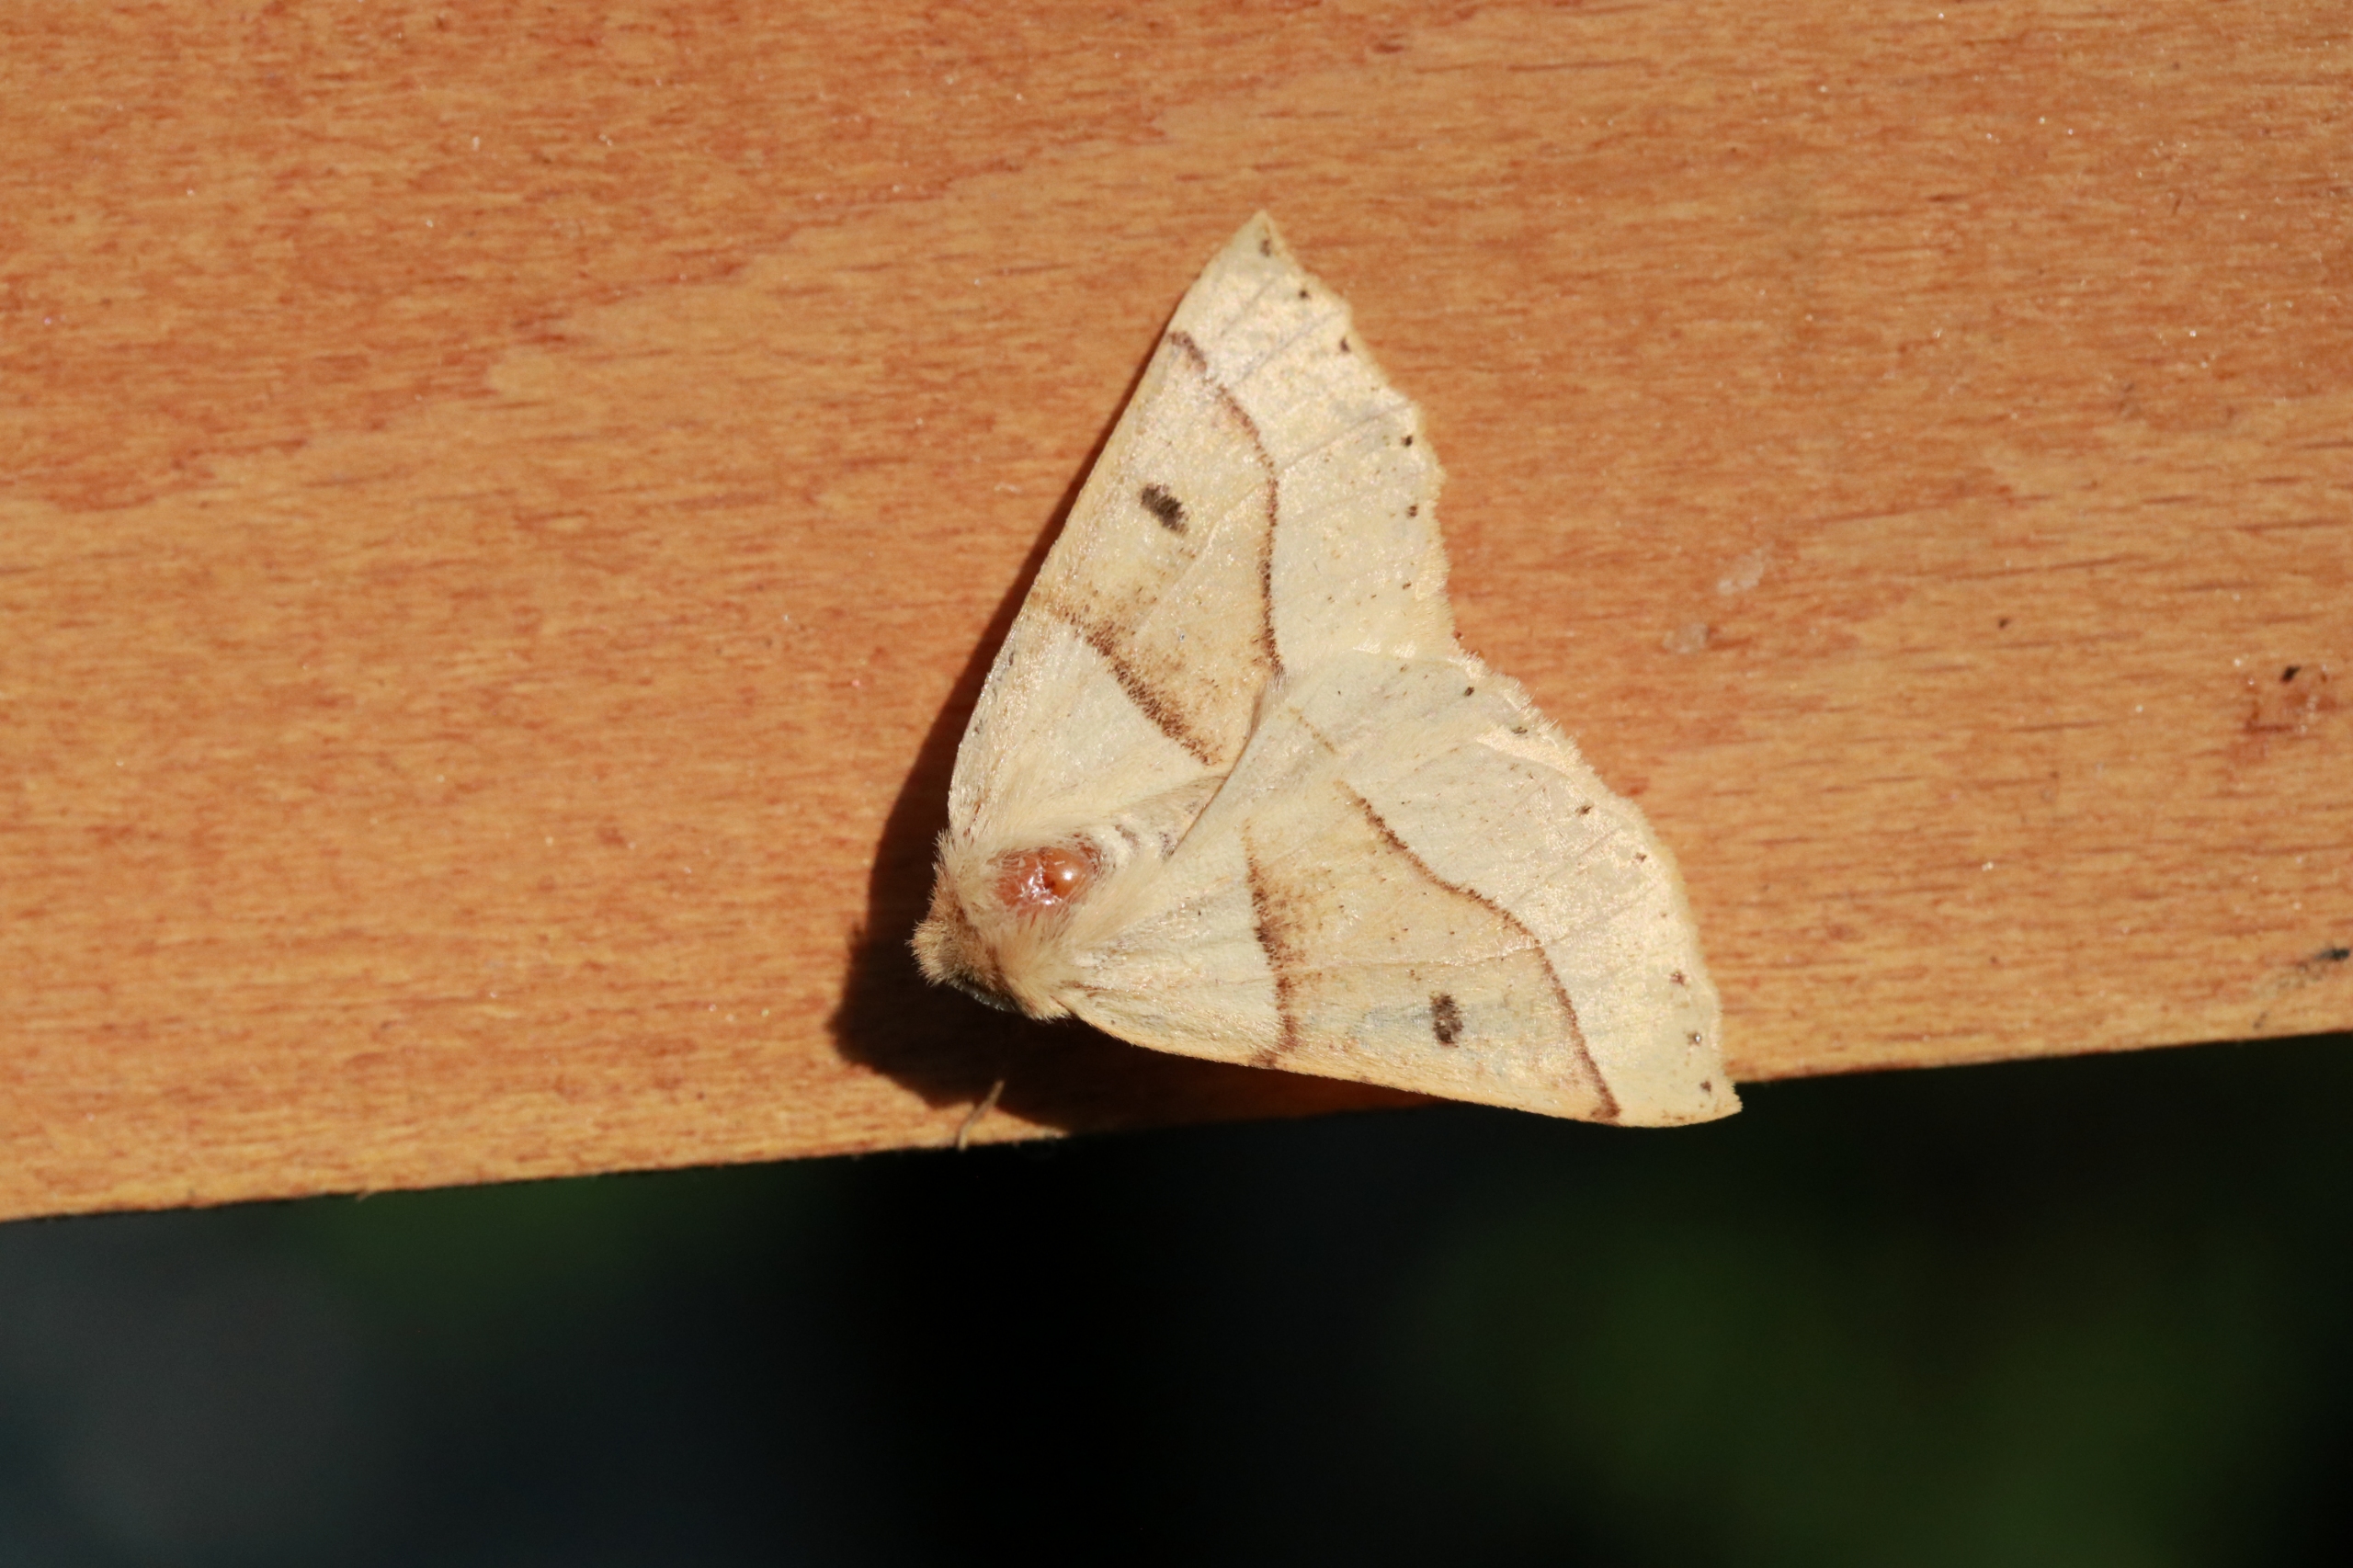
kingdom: Animalia
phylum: Arthropoda
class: Insecta
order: Lepidoptera
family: Geometridae
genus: Crocallis
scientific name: Crocallis elinguaria
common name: Okkergul rovmåler
